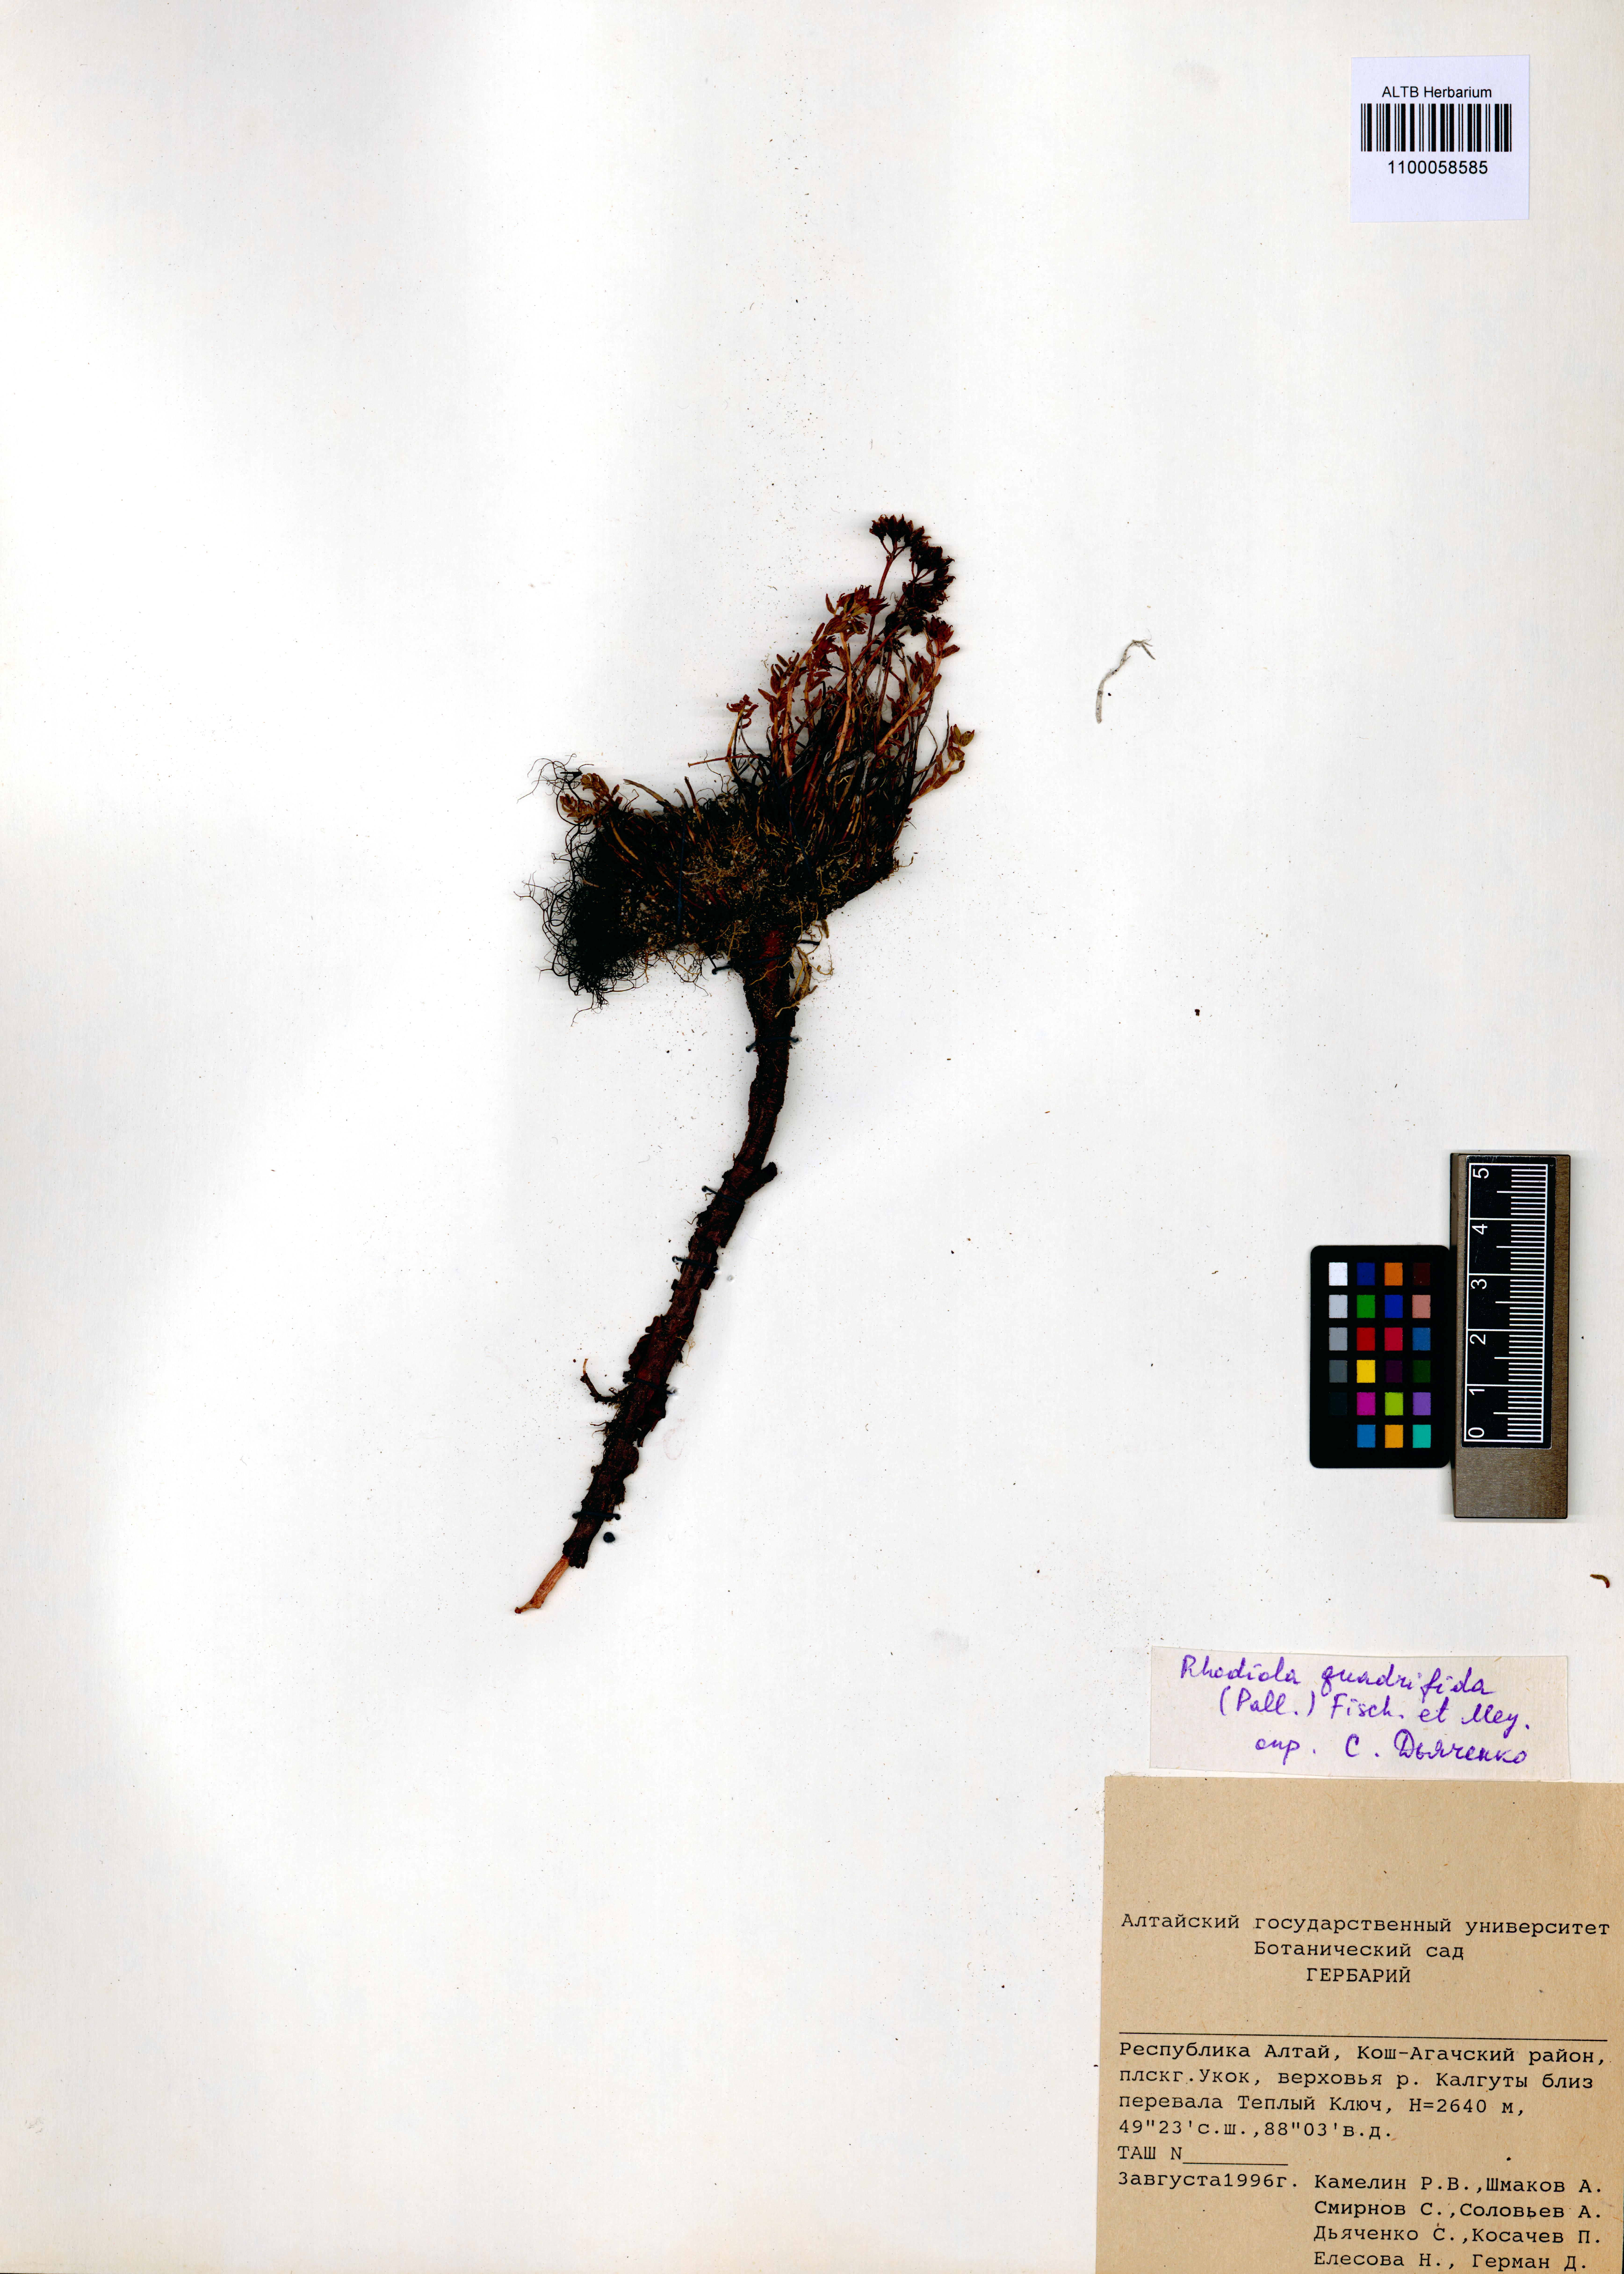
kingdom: Plantae
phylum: Tracheophyta
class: Magnoliopsida
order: Saxifragales
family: Crassulaceae
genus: Rhodiola
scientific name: Rhodiola quadrifida
